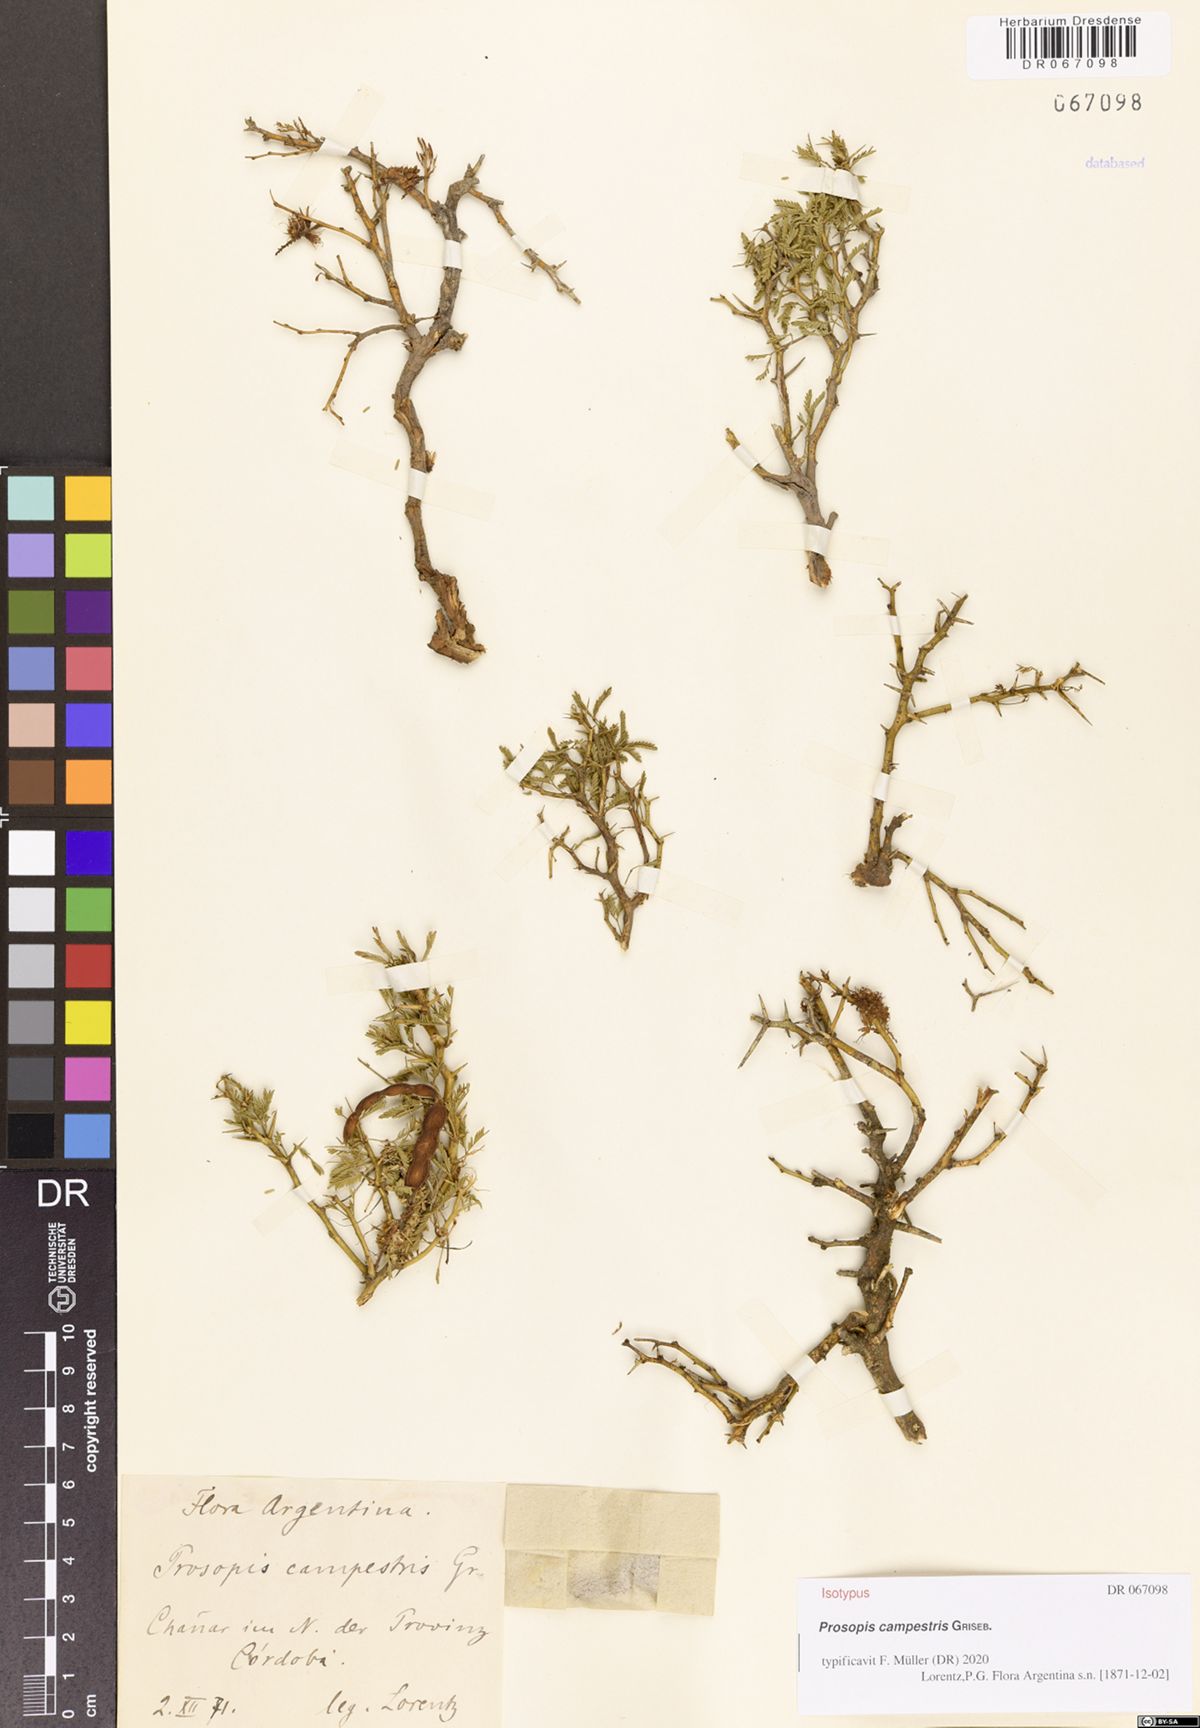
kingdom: Plantae
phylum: Tracheophyta
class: Magnoliopsida
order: Fabales
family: Fabaceae
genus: Prosopis
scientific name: Prosopis campestris
